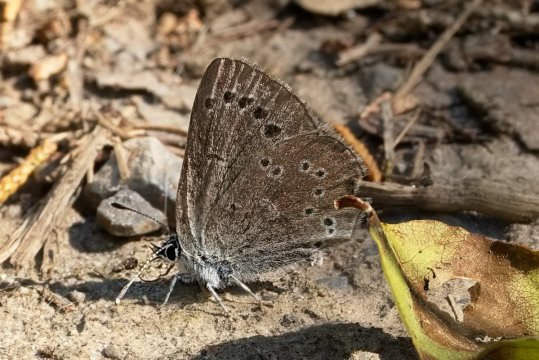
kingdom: Animalia
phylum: Arthropoda
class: Insecta
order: Lepidoptera
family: Lycaenidae
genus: Glaucopsyche
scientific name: Glaucopsyche lygdamus
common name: Silvery Blue
